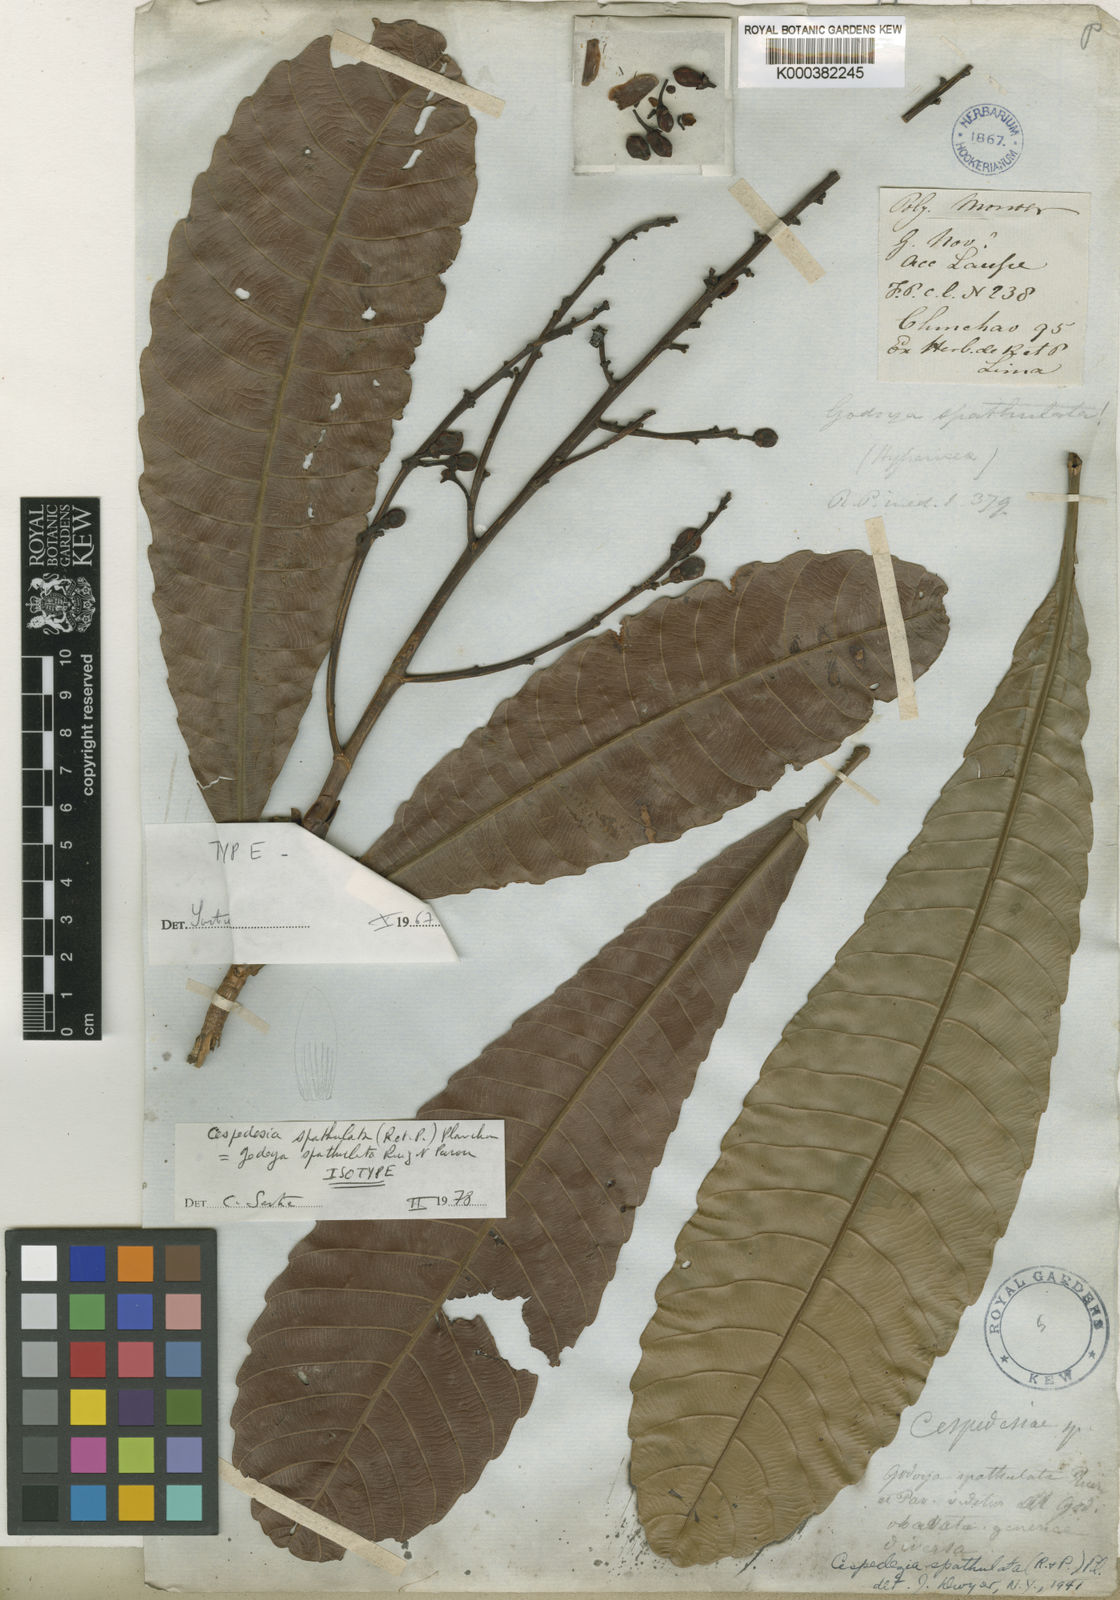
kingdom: Plantae
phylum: Tracheophyta
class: Magnoliopsida
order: Malpighiales
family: Ochnaceae
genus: Cespedesia
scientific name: Cespedesia spathulata
